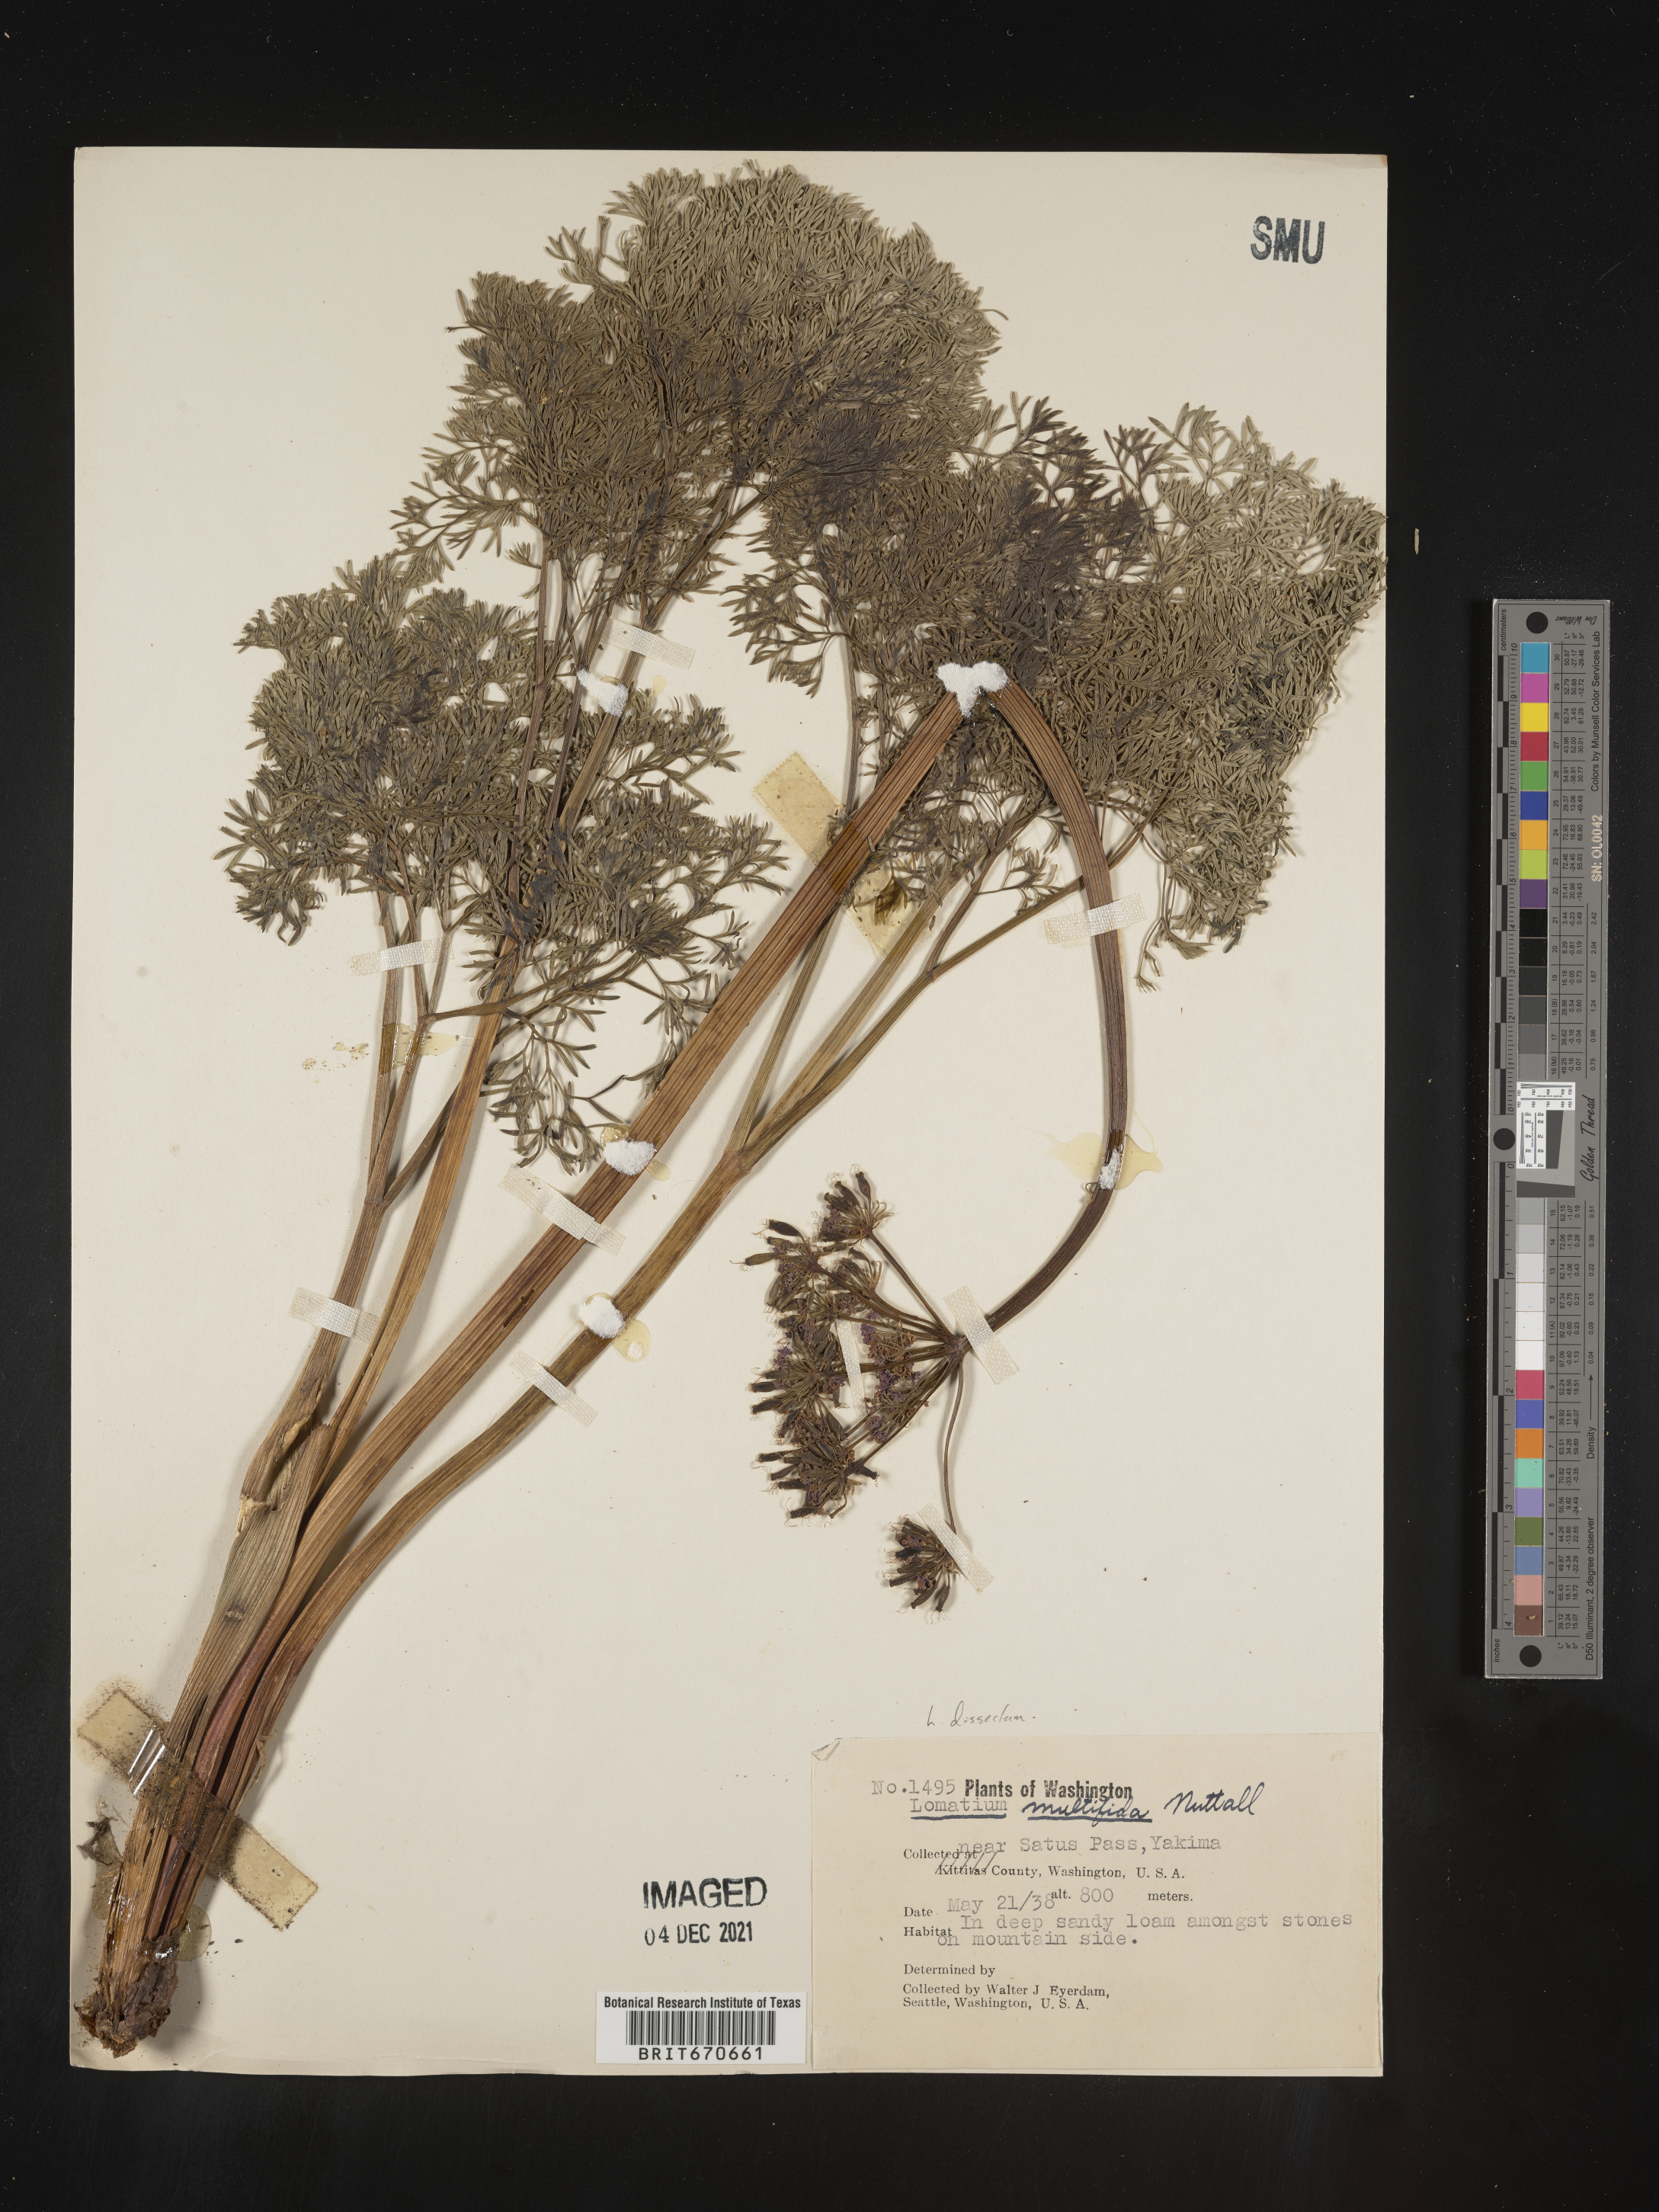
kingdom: Plantae
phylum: Tracheophyta
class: Magnoliopsida
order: Apiales
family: Apiaceae
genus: Lomatium
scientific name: Lomatium dissectum
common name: Lomatium
